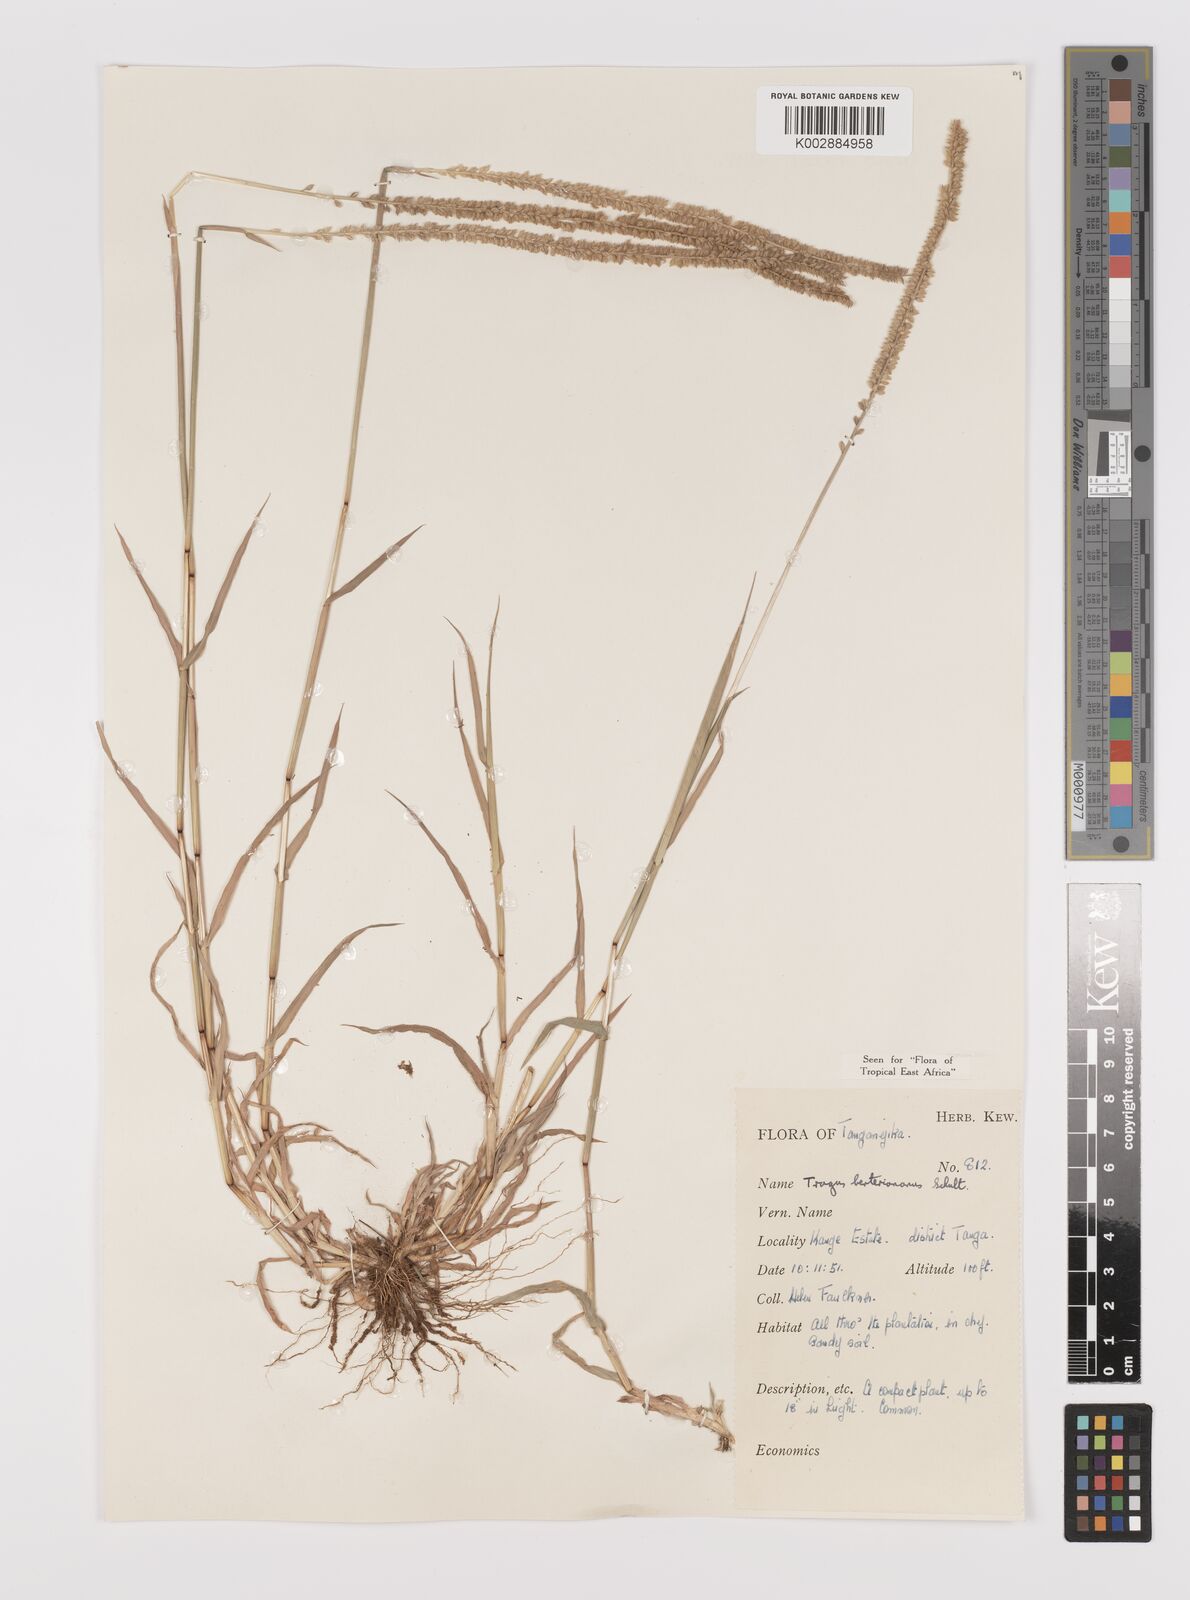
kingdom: Plantae
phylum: Tracheophyta
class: Liliopsida
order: Poales
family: Poaceae
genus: Tragus
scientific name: Tragus berteronianus
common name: African bur-grass
